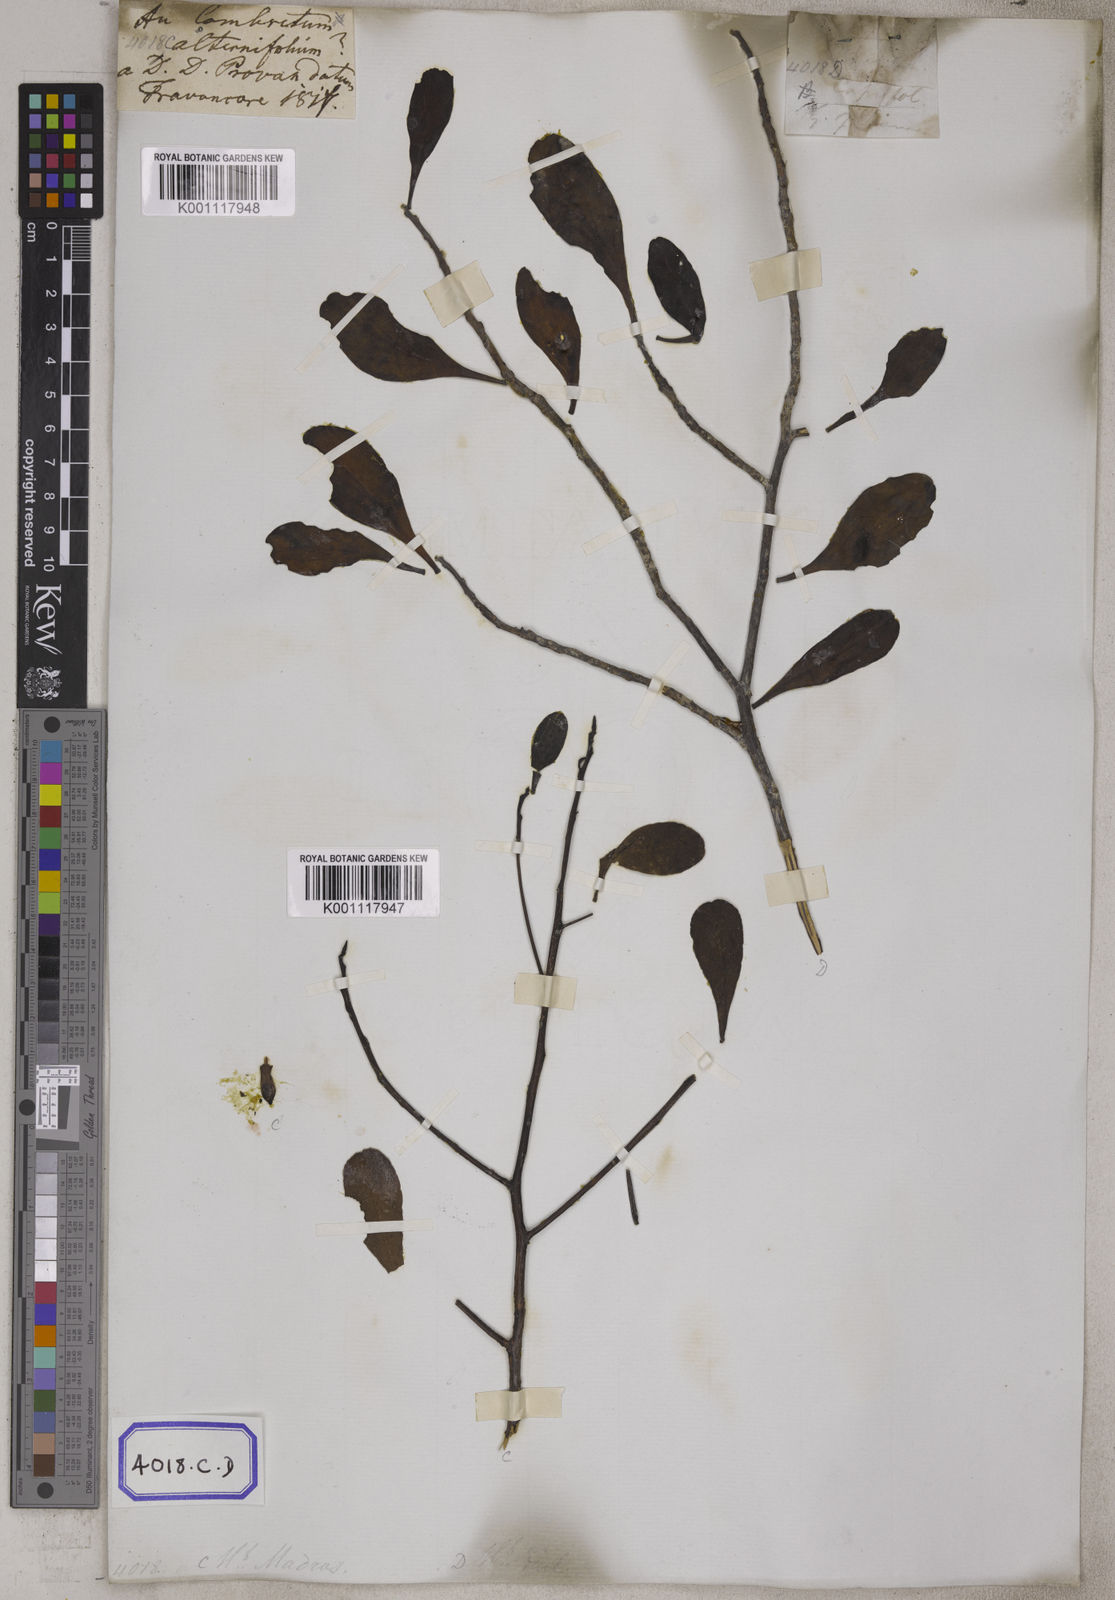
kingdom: Plantae
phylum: Tracheophyta
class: Magnoliopsida
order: Myrtales
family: Combretaceae
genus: Lumnitzera
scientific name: Lumnitzera littorea
